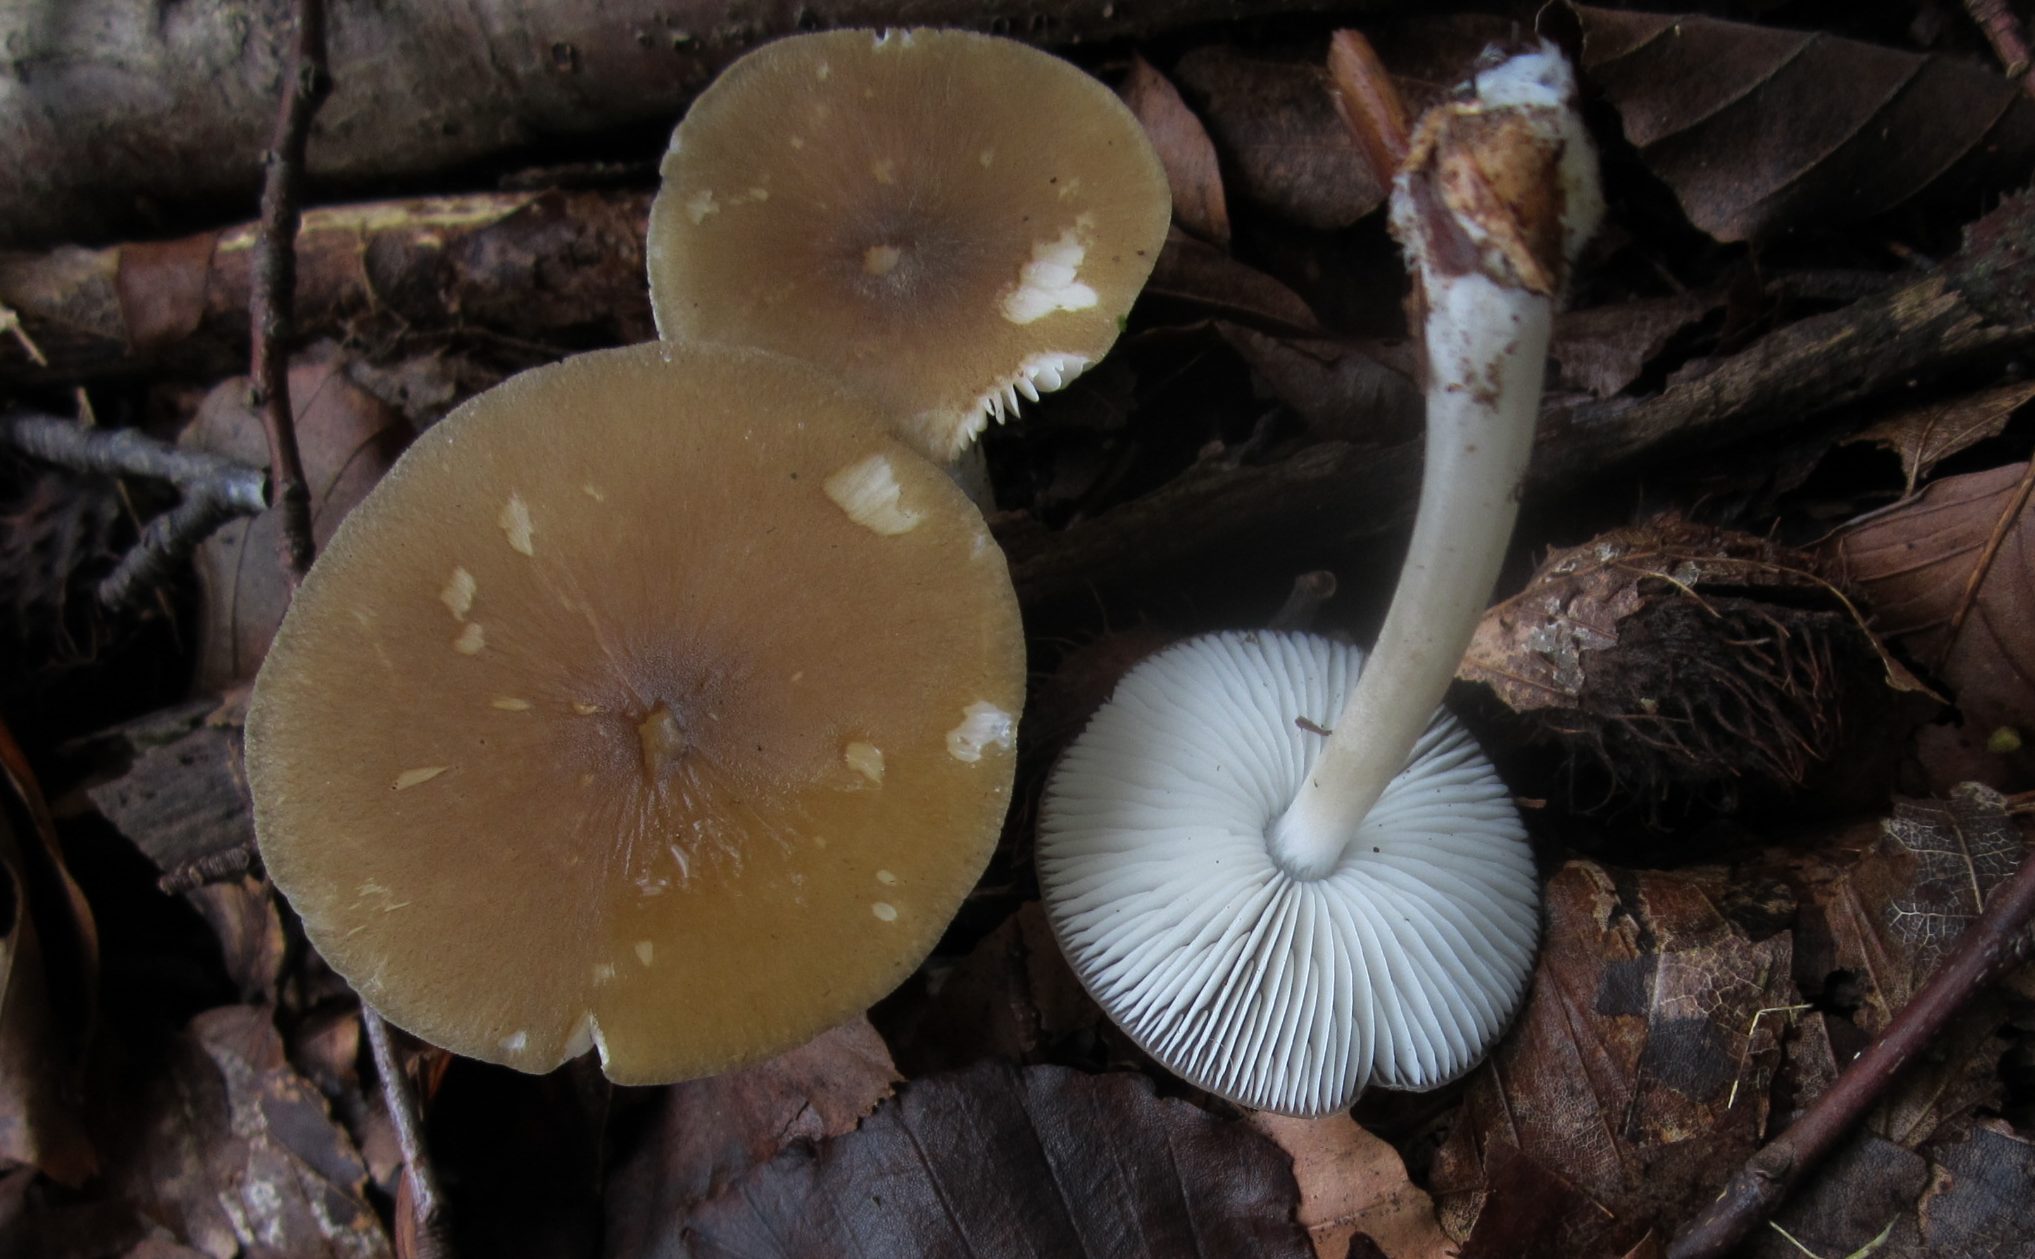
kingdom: Fungi
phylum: Basidiomycota
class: Agaricomycetes
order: Agaricales
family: Porotheleaceae
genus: Hydropodia
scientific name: Hydropodia subalpina
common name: vår-fnugfod
